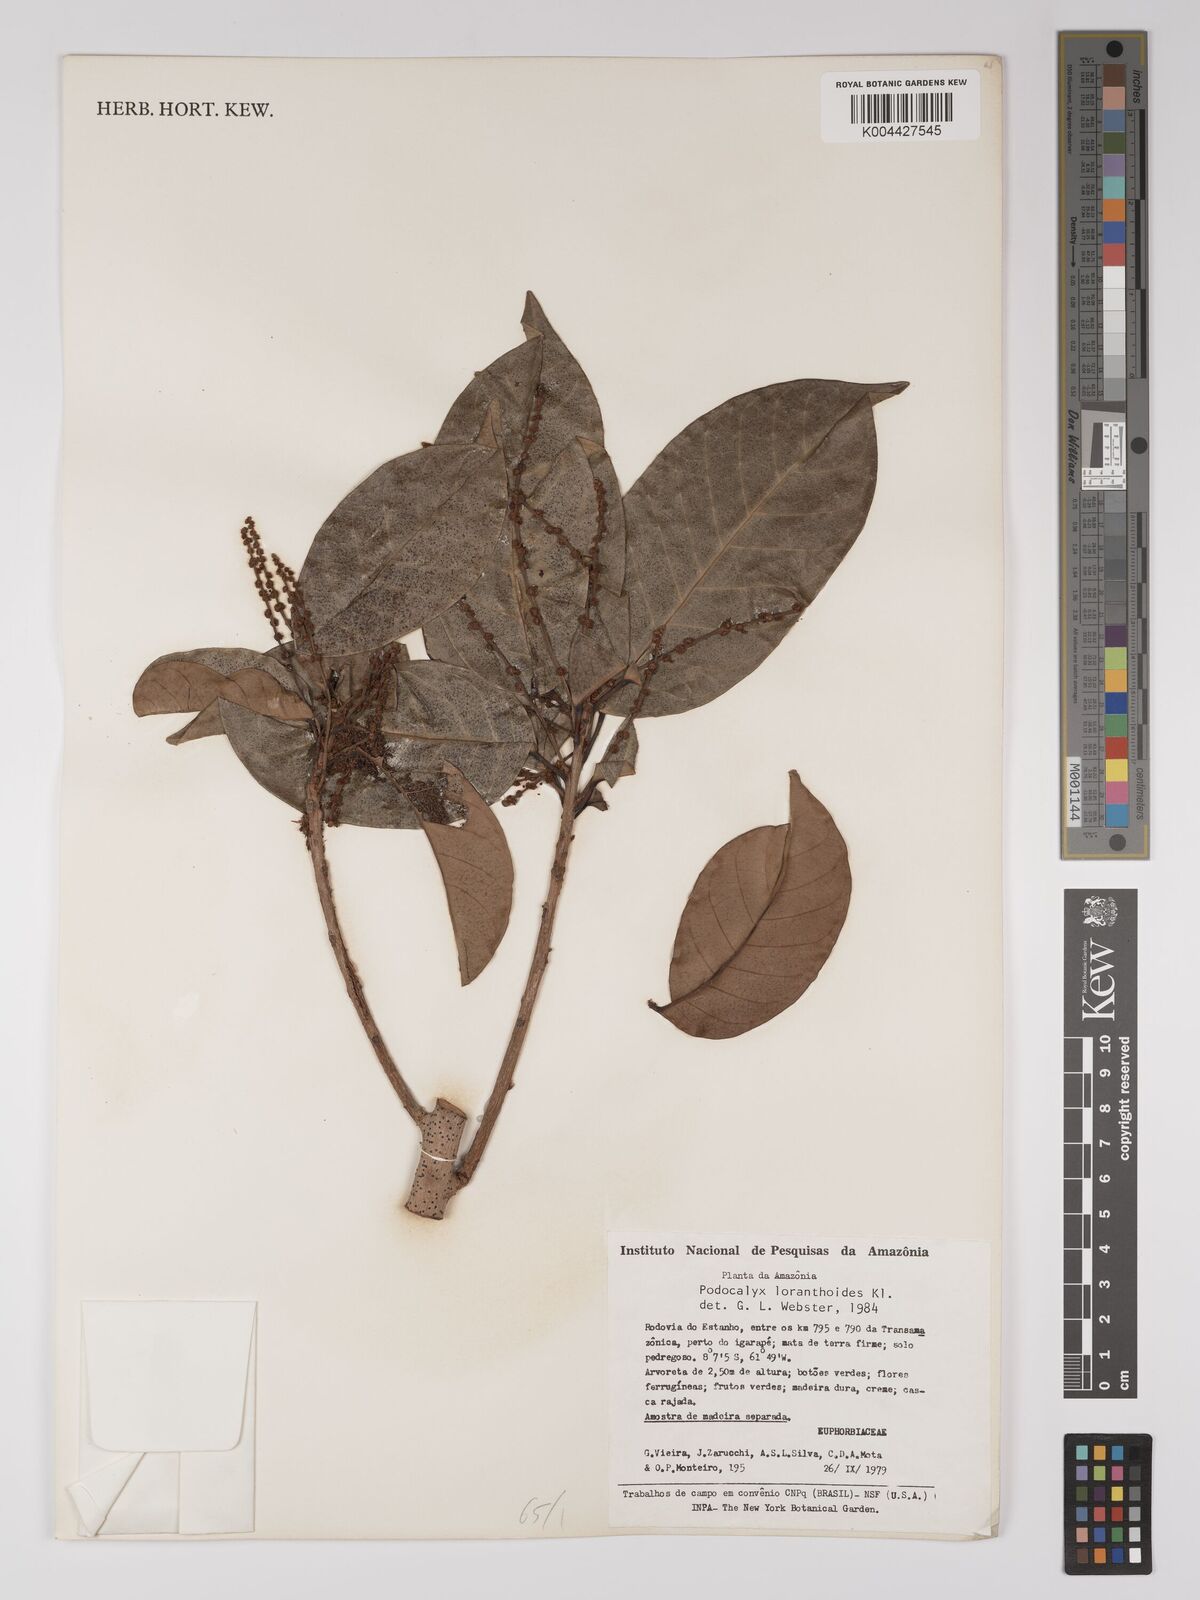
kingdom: Plantae
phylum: Tracheophyta
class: Magnoliopsida
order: Malpighiales
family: Picrodendraceae
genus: Podocalyx
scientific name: Podocalyx loranthoides
